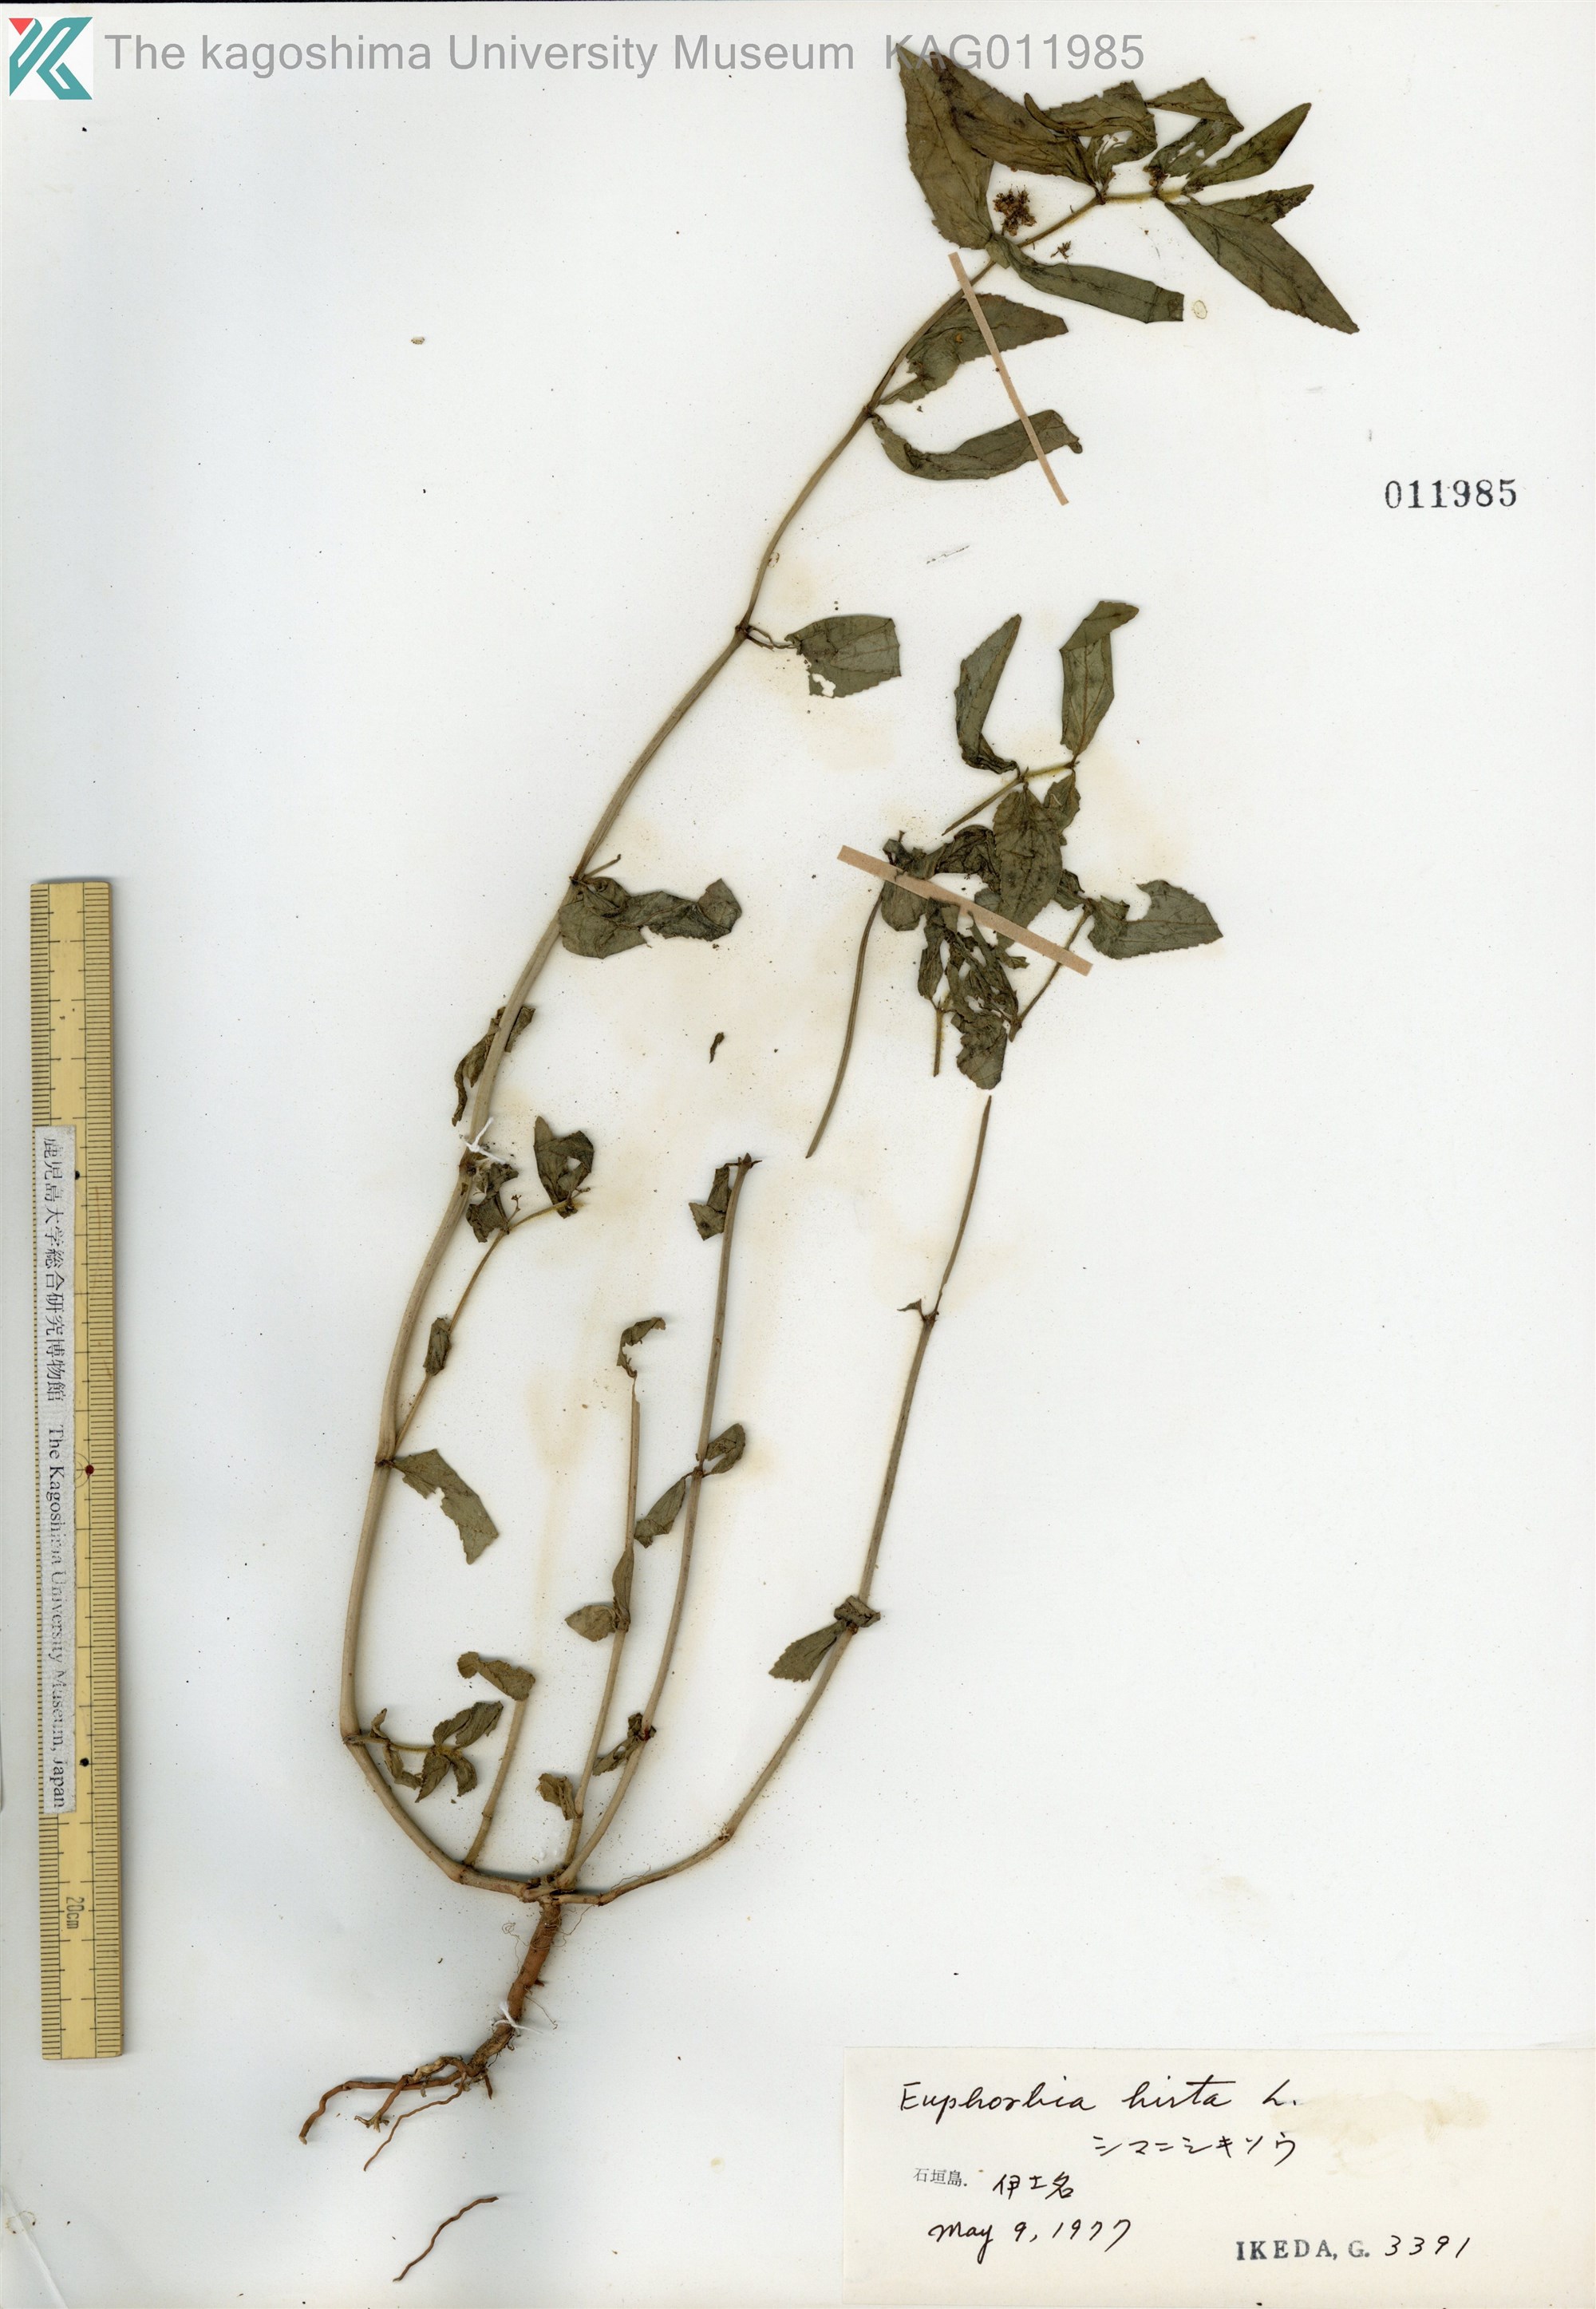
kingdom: Plantae
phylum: Tracheophyta
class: Magnoliopsida
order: Malpighiales
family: Euphorbiaceae
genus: Euphorbia
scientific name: Euphorbia hirta
